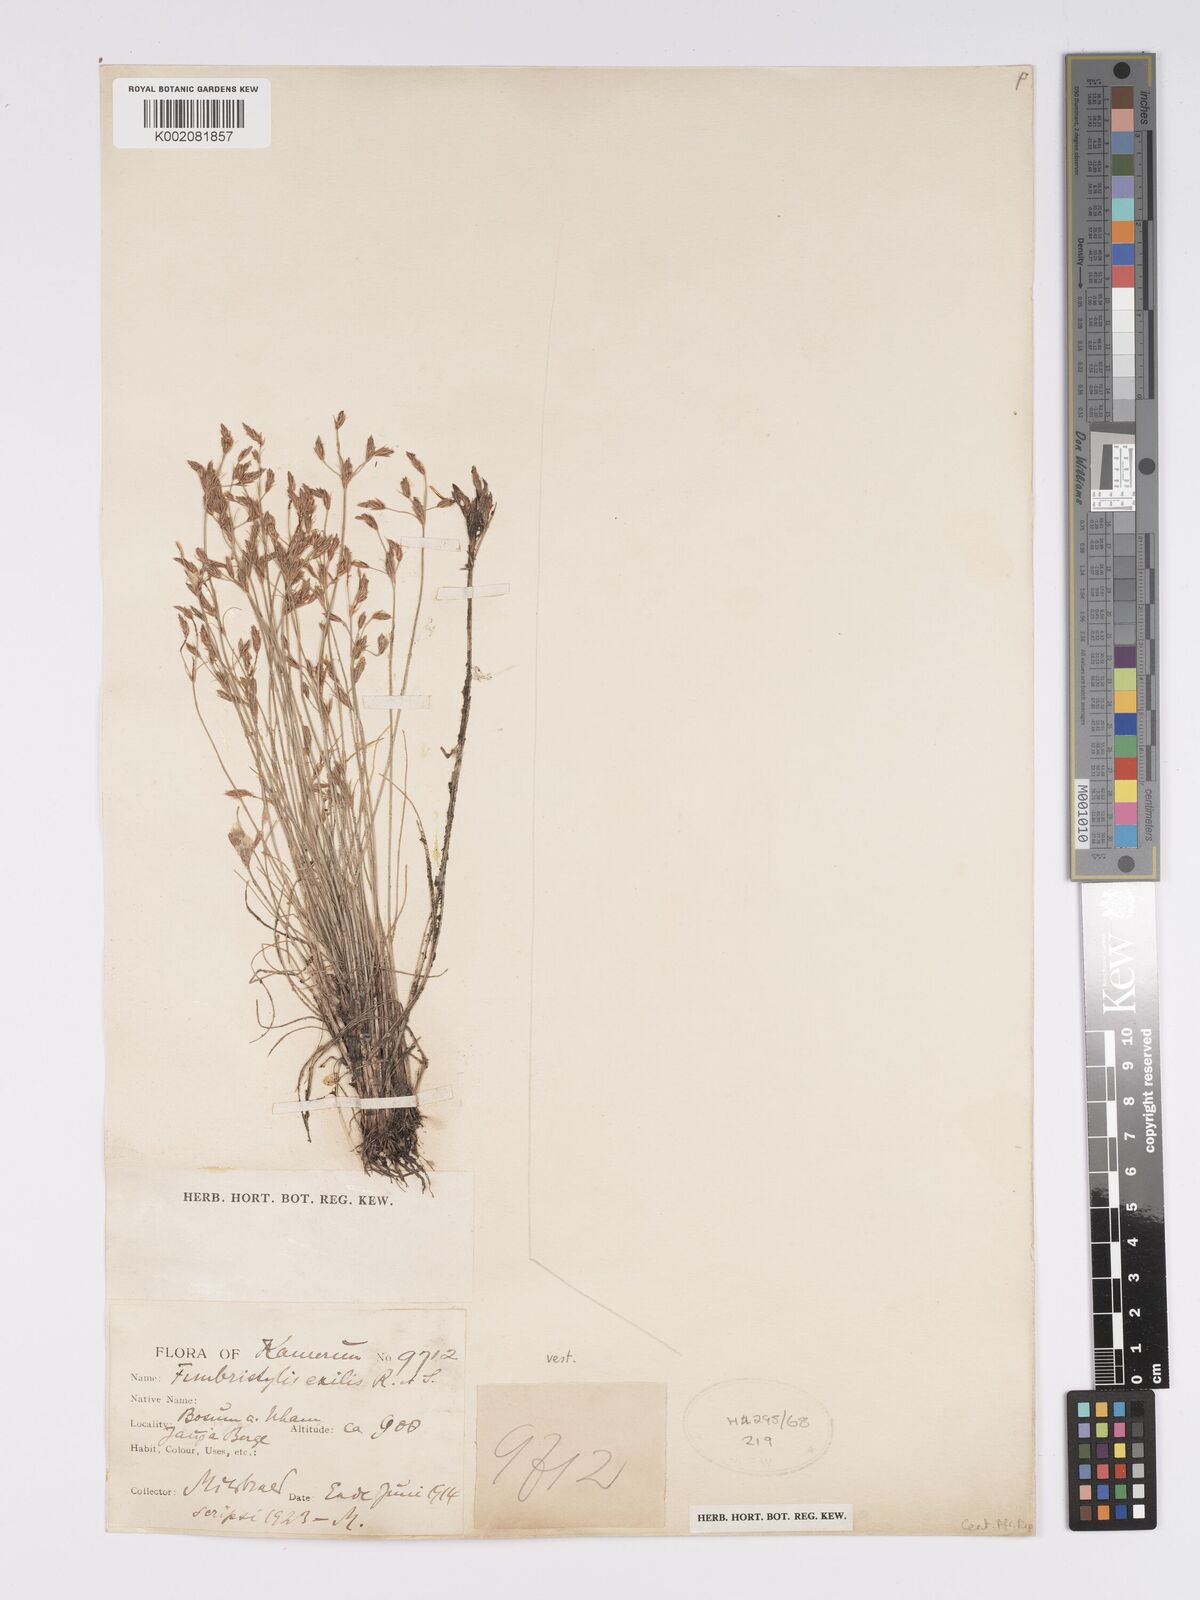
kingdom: Plantae
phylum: Tracheophyta
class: Liliopsida
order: Poales
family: Cyperaceae
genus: Bulbostylis
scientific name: Bulbostylis hispidula
